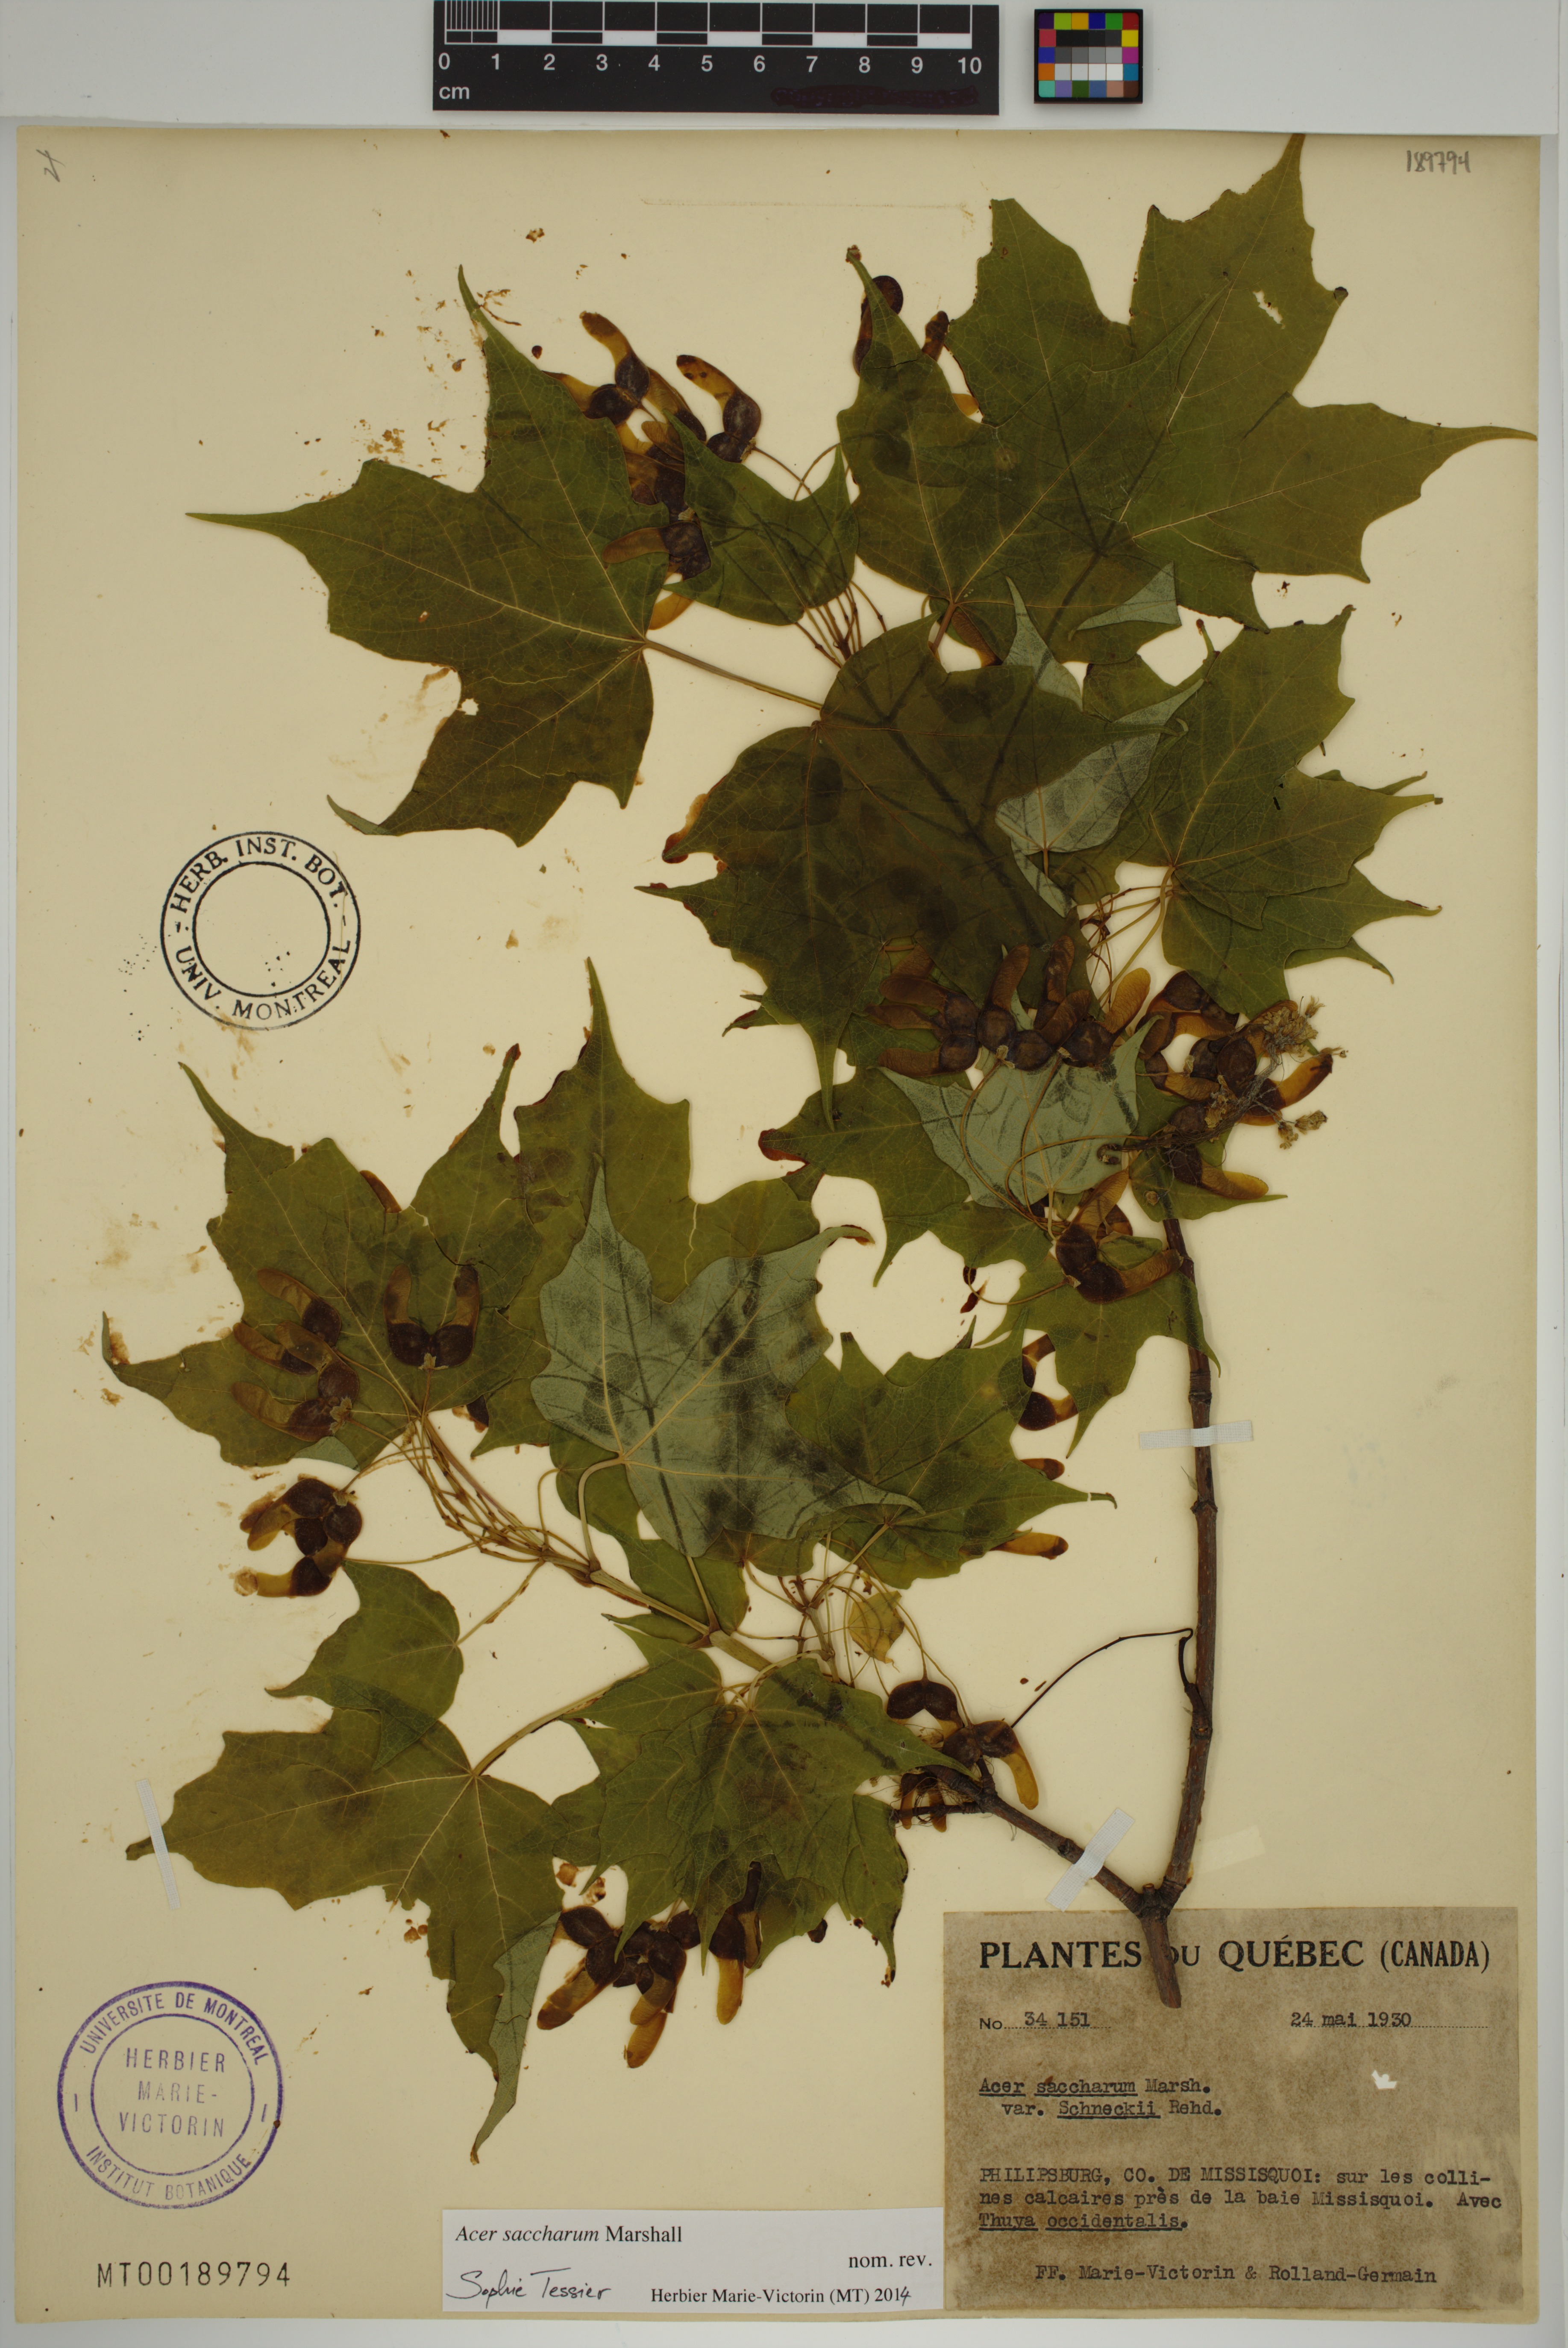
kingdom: Plantae
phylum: Tracheophyta
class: Magnoliopsida
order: Sapindales
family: Sapindaceae
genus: Acer
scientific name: Acer saccharum
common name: Sugar maple
